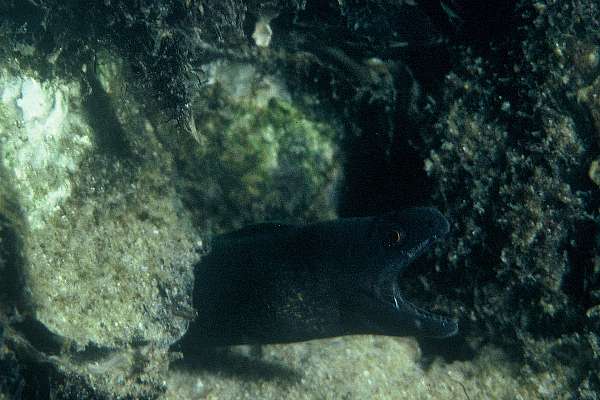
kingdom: Animalia
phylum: Chordata
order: Anguilliformes
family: Muraenidae
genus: Gymnothorax
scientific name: Gymnothorax flavimarginatus
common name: Yellow-edged moray
